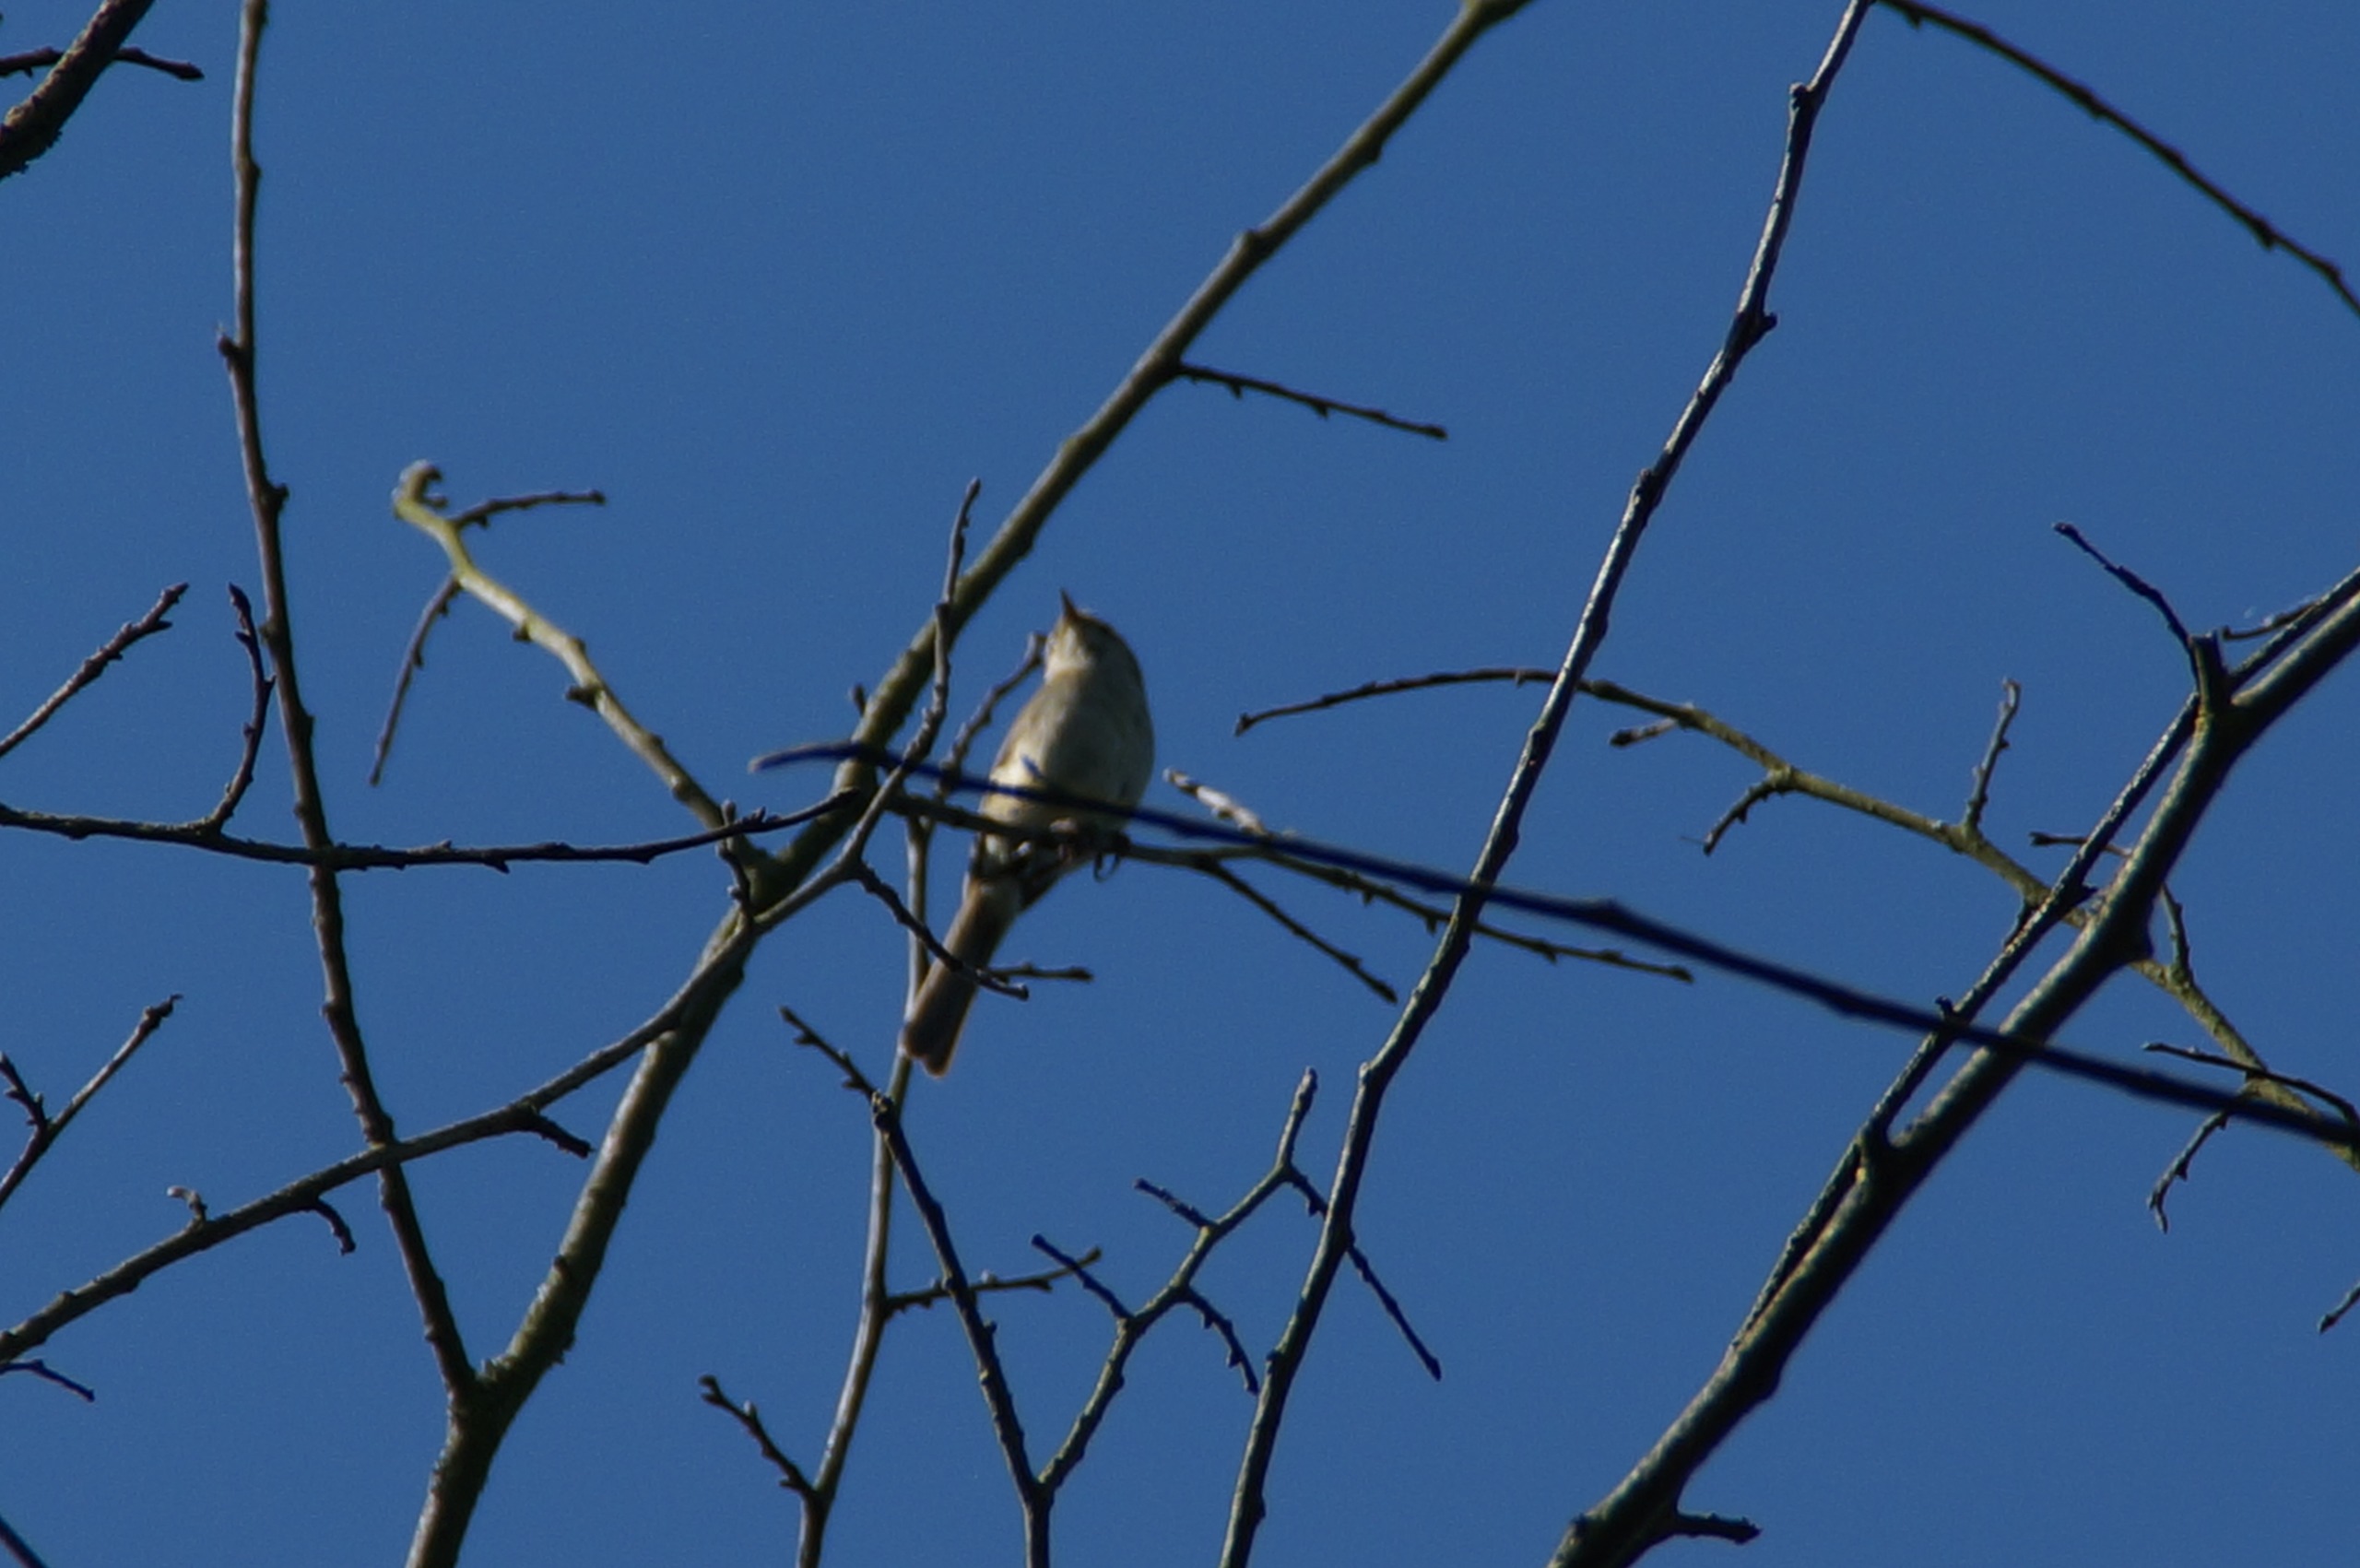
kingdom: Animalia
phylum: Chordata
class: Aves
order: Passeriformes
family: Phylloscopidae
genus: Phylloscopus
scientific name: Phylloscopus collybita
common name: Gransanger
